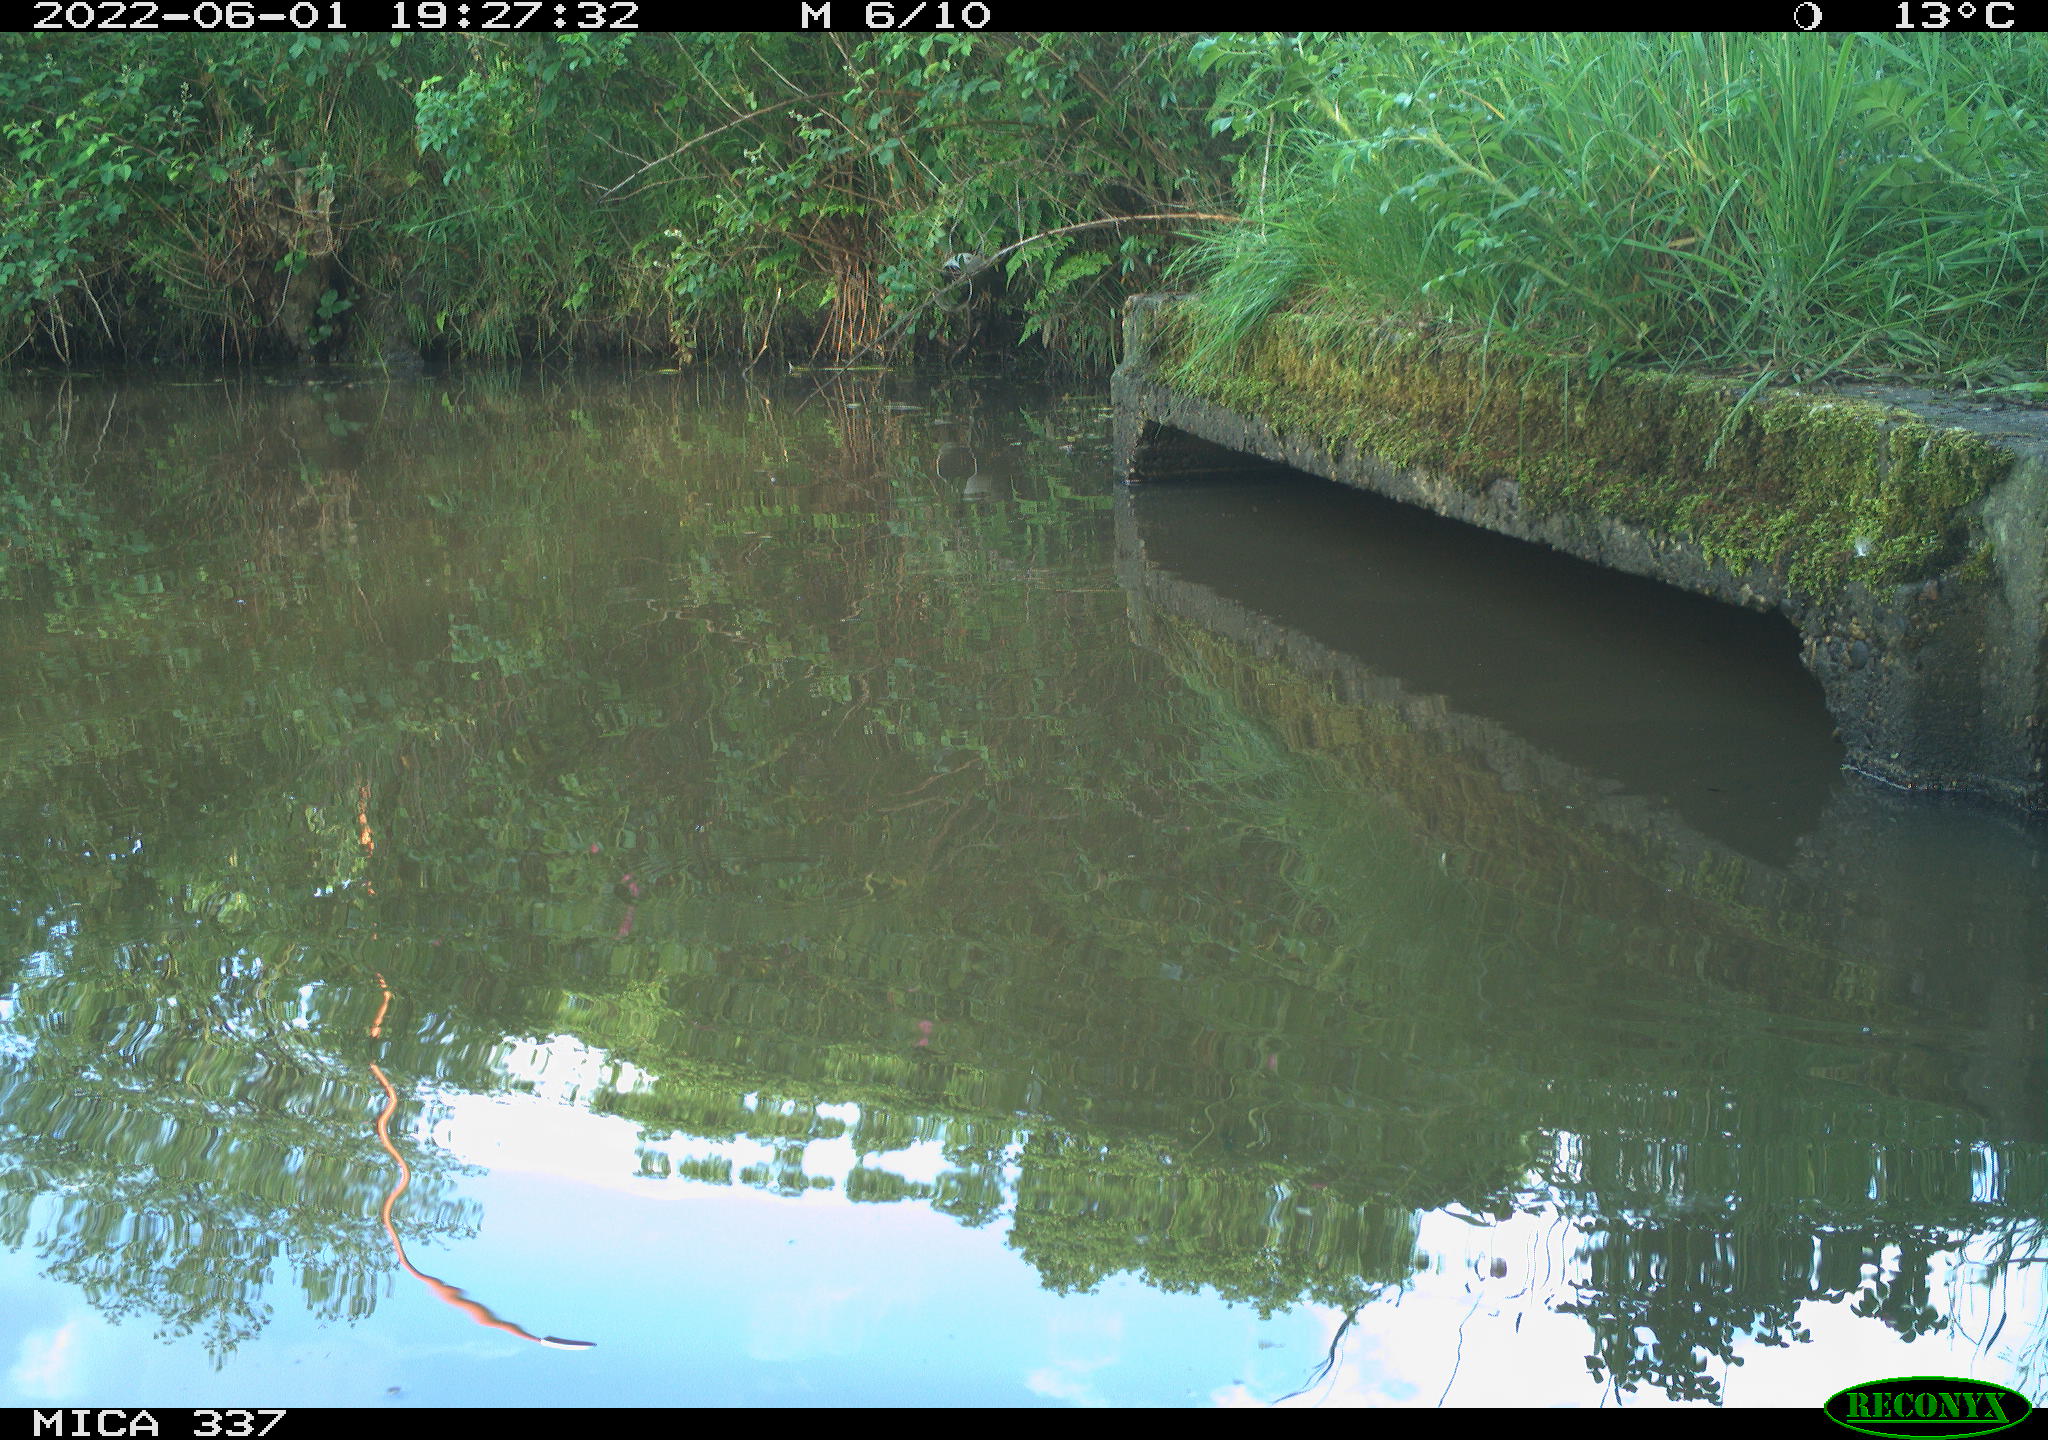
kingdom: Animalia
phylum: Chordata
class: Aves
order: Gruiformes
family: Rallidae
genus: Gallinula
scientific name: Gallinula chloropus
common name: Common moorhen
